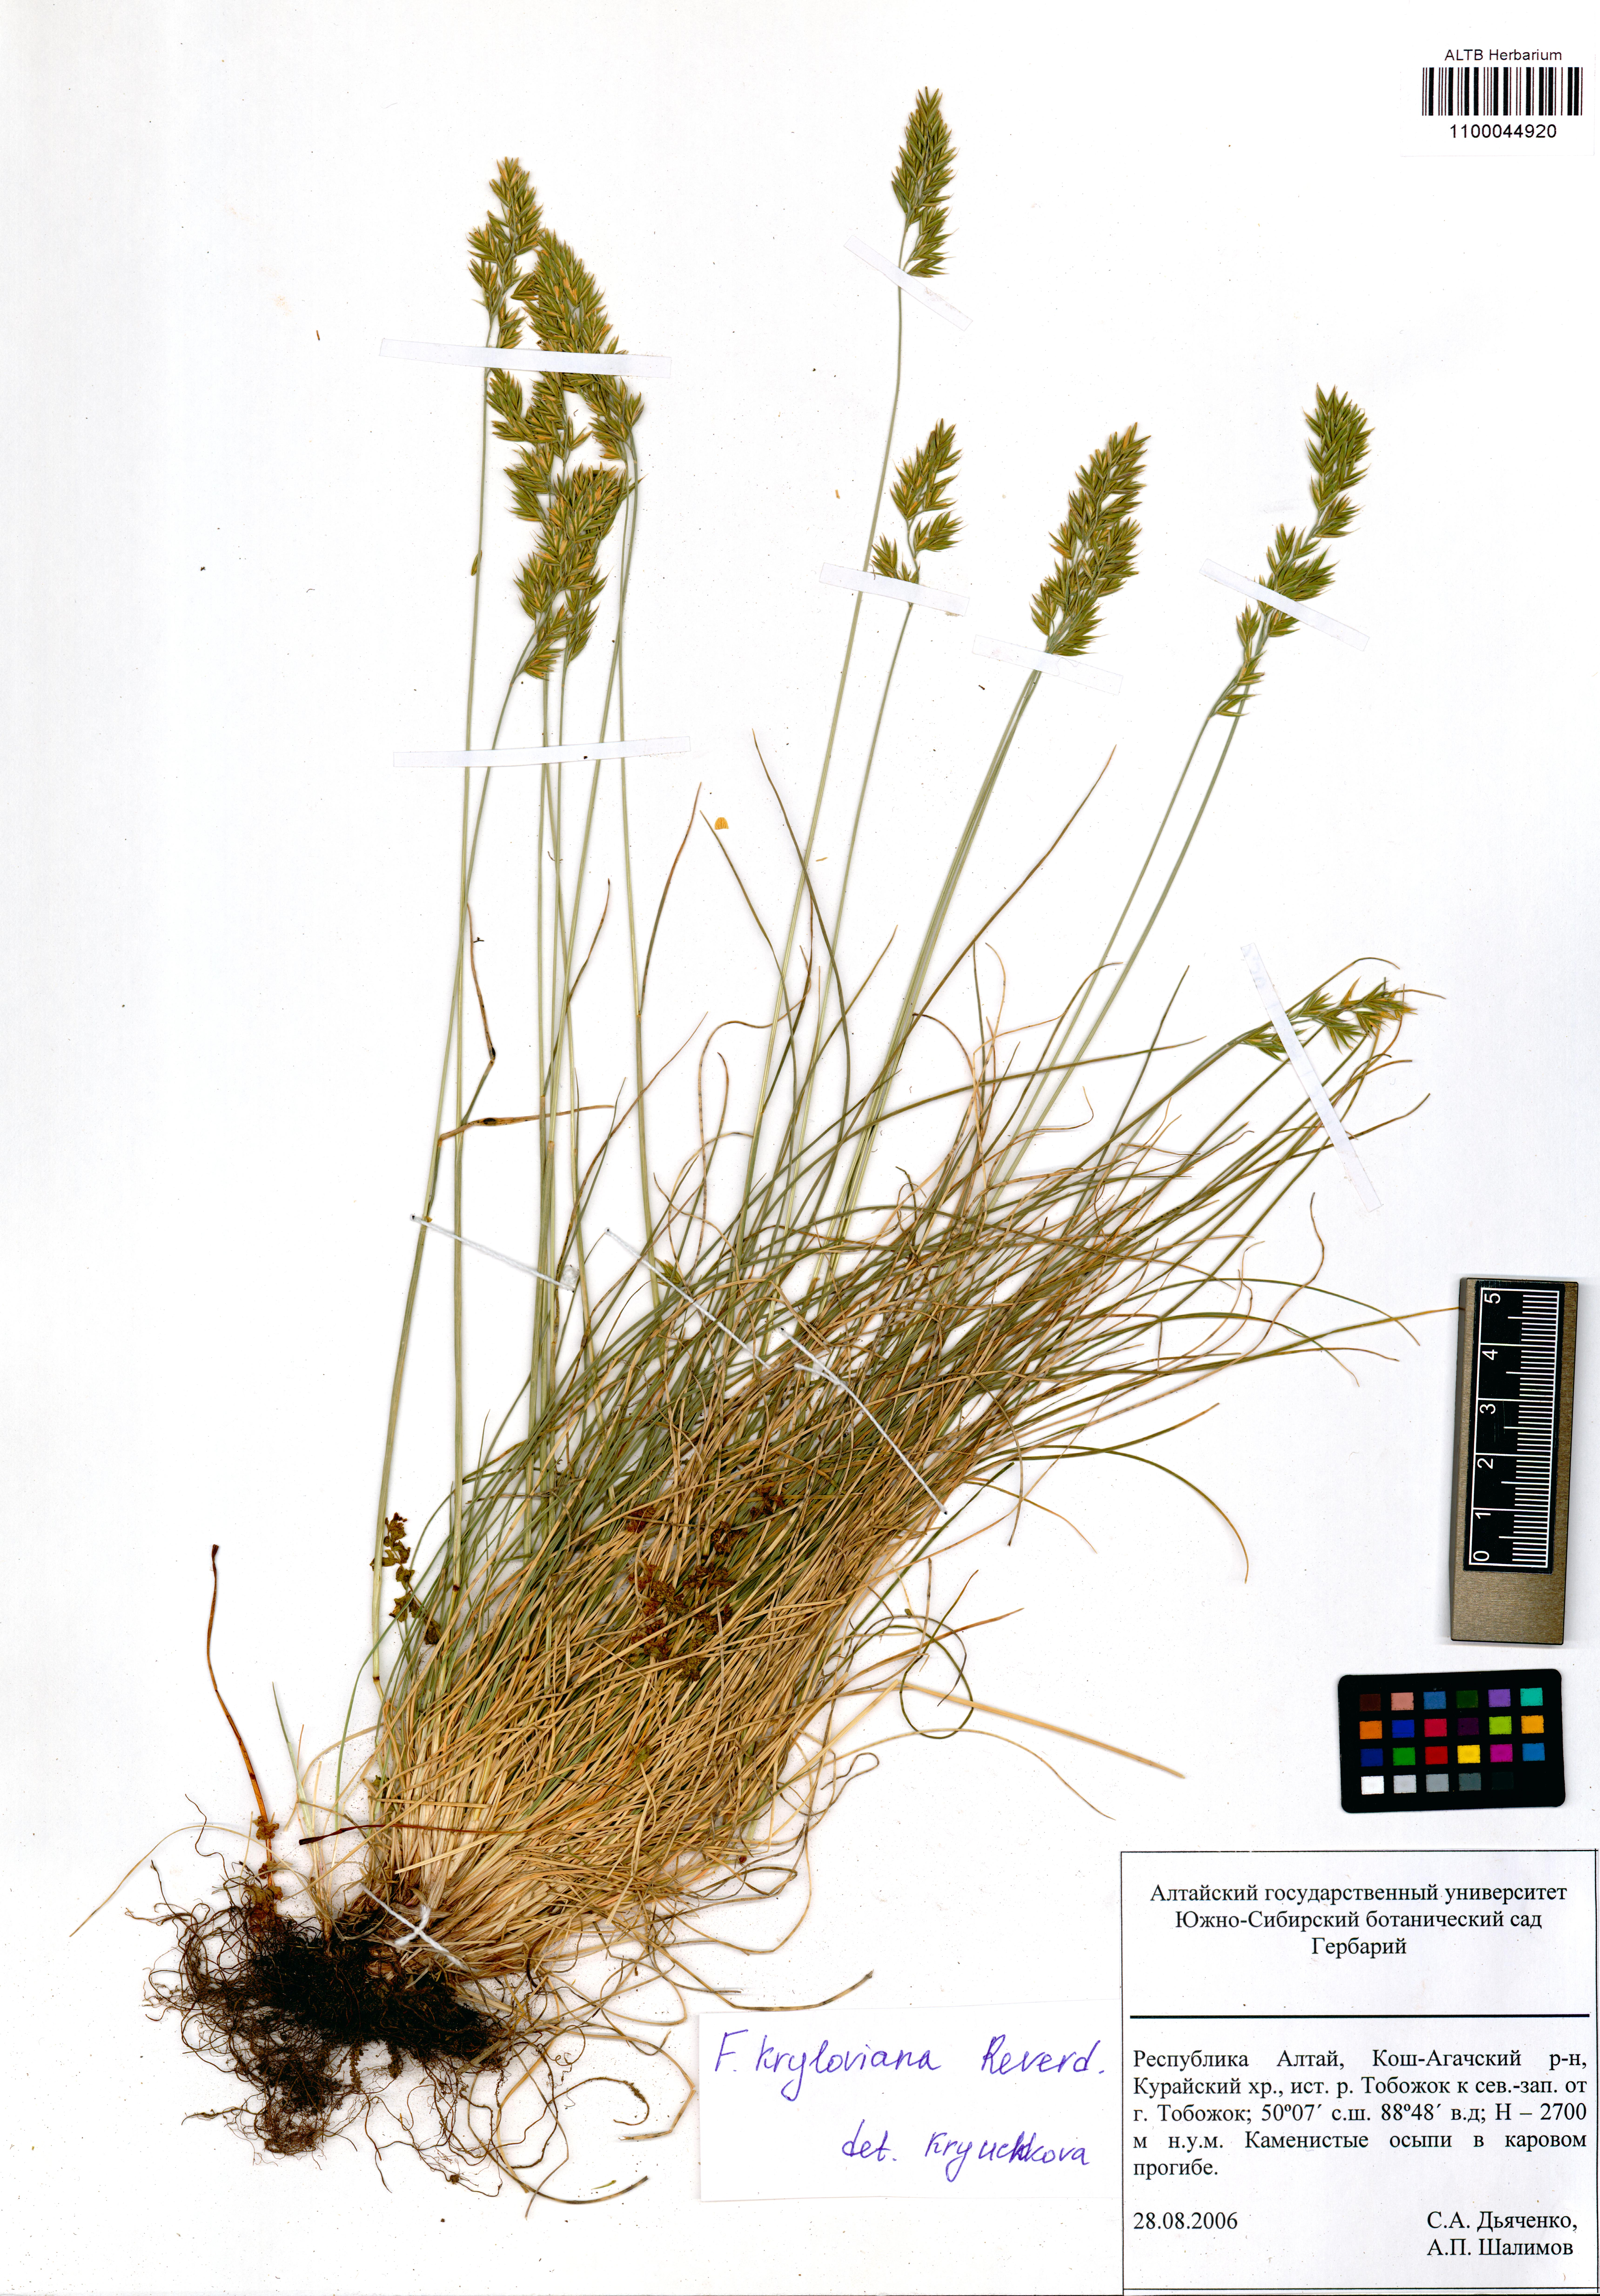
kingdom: Plantae
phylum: Tracheophyta
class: Liliopsida
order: Poales
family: Poaceae
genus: Festuca
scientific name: Festuca kryloviana
